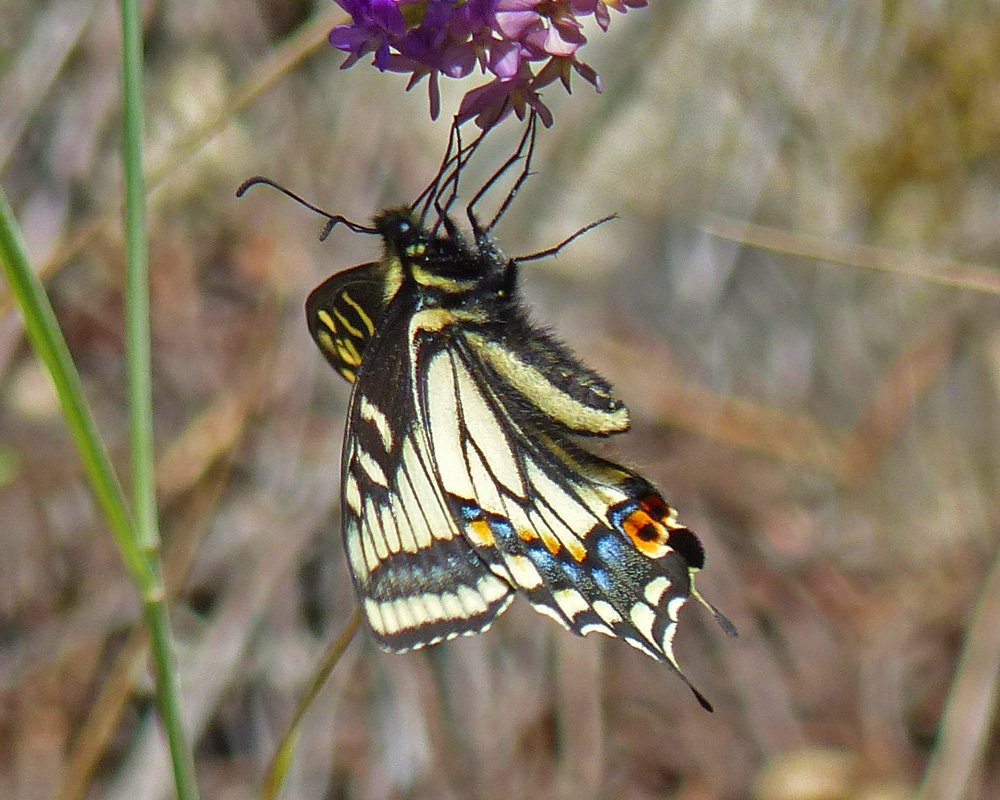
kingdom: Animalia
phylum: Arthropoda
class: Insecta
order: Lepidoptera
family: Papilionidae
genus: Papilio
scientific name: Papilio zelicaon
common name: Anise Swallowtail
